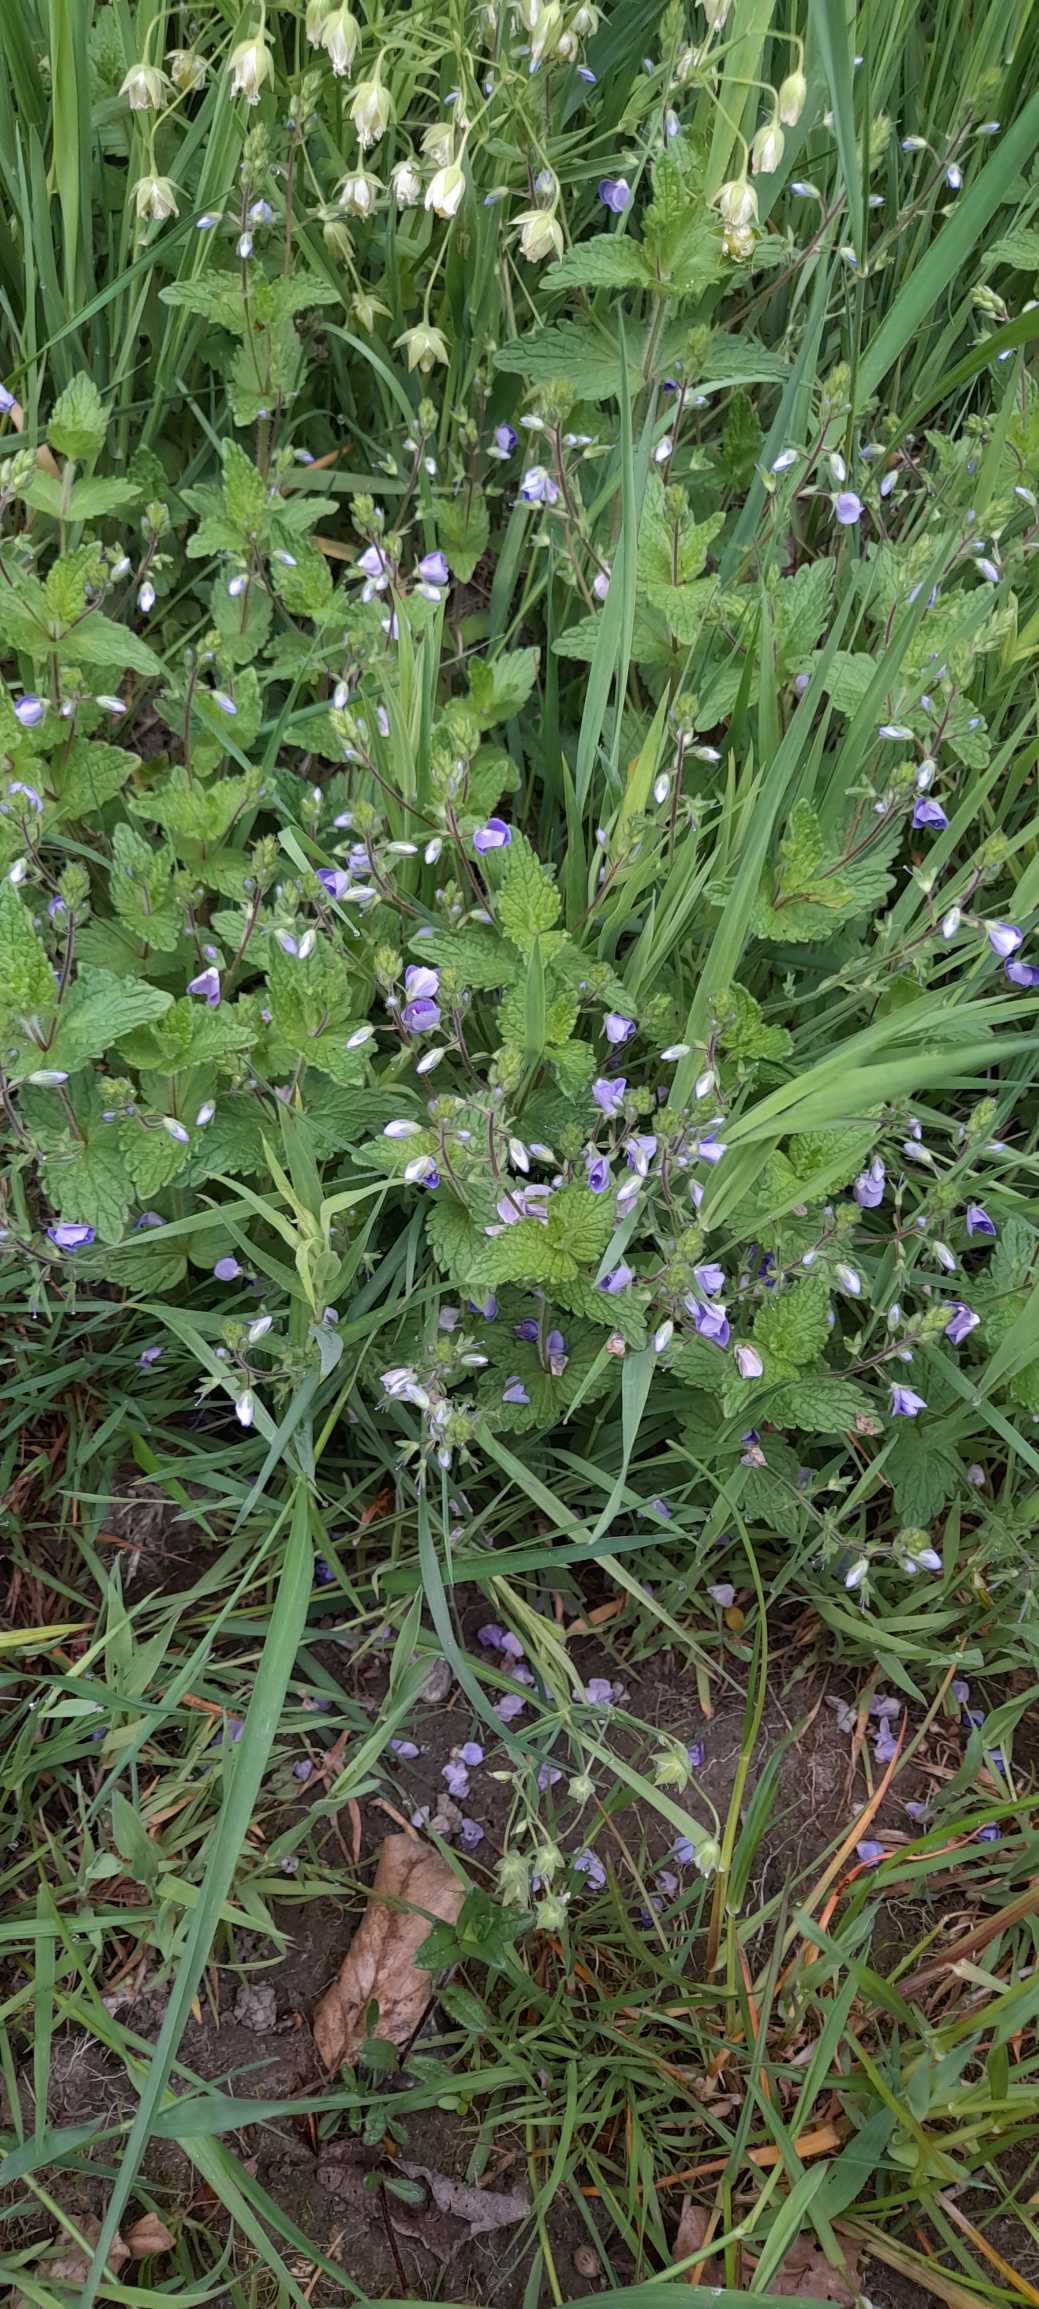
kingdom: Plantae
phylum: Tracheophyta
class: Magnoliopsida
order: Lamiales
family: Plantaginaceae
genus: Veronica
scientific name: Veronica chamaedrys
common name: Tveskægget ærenpris
